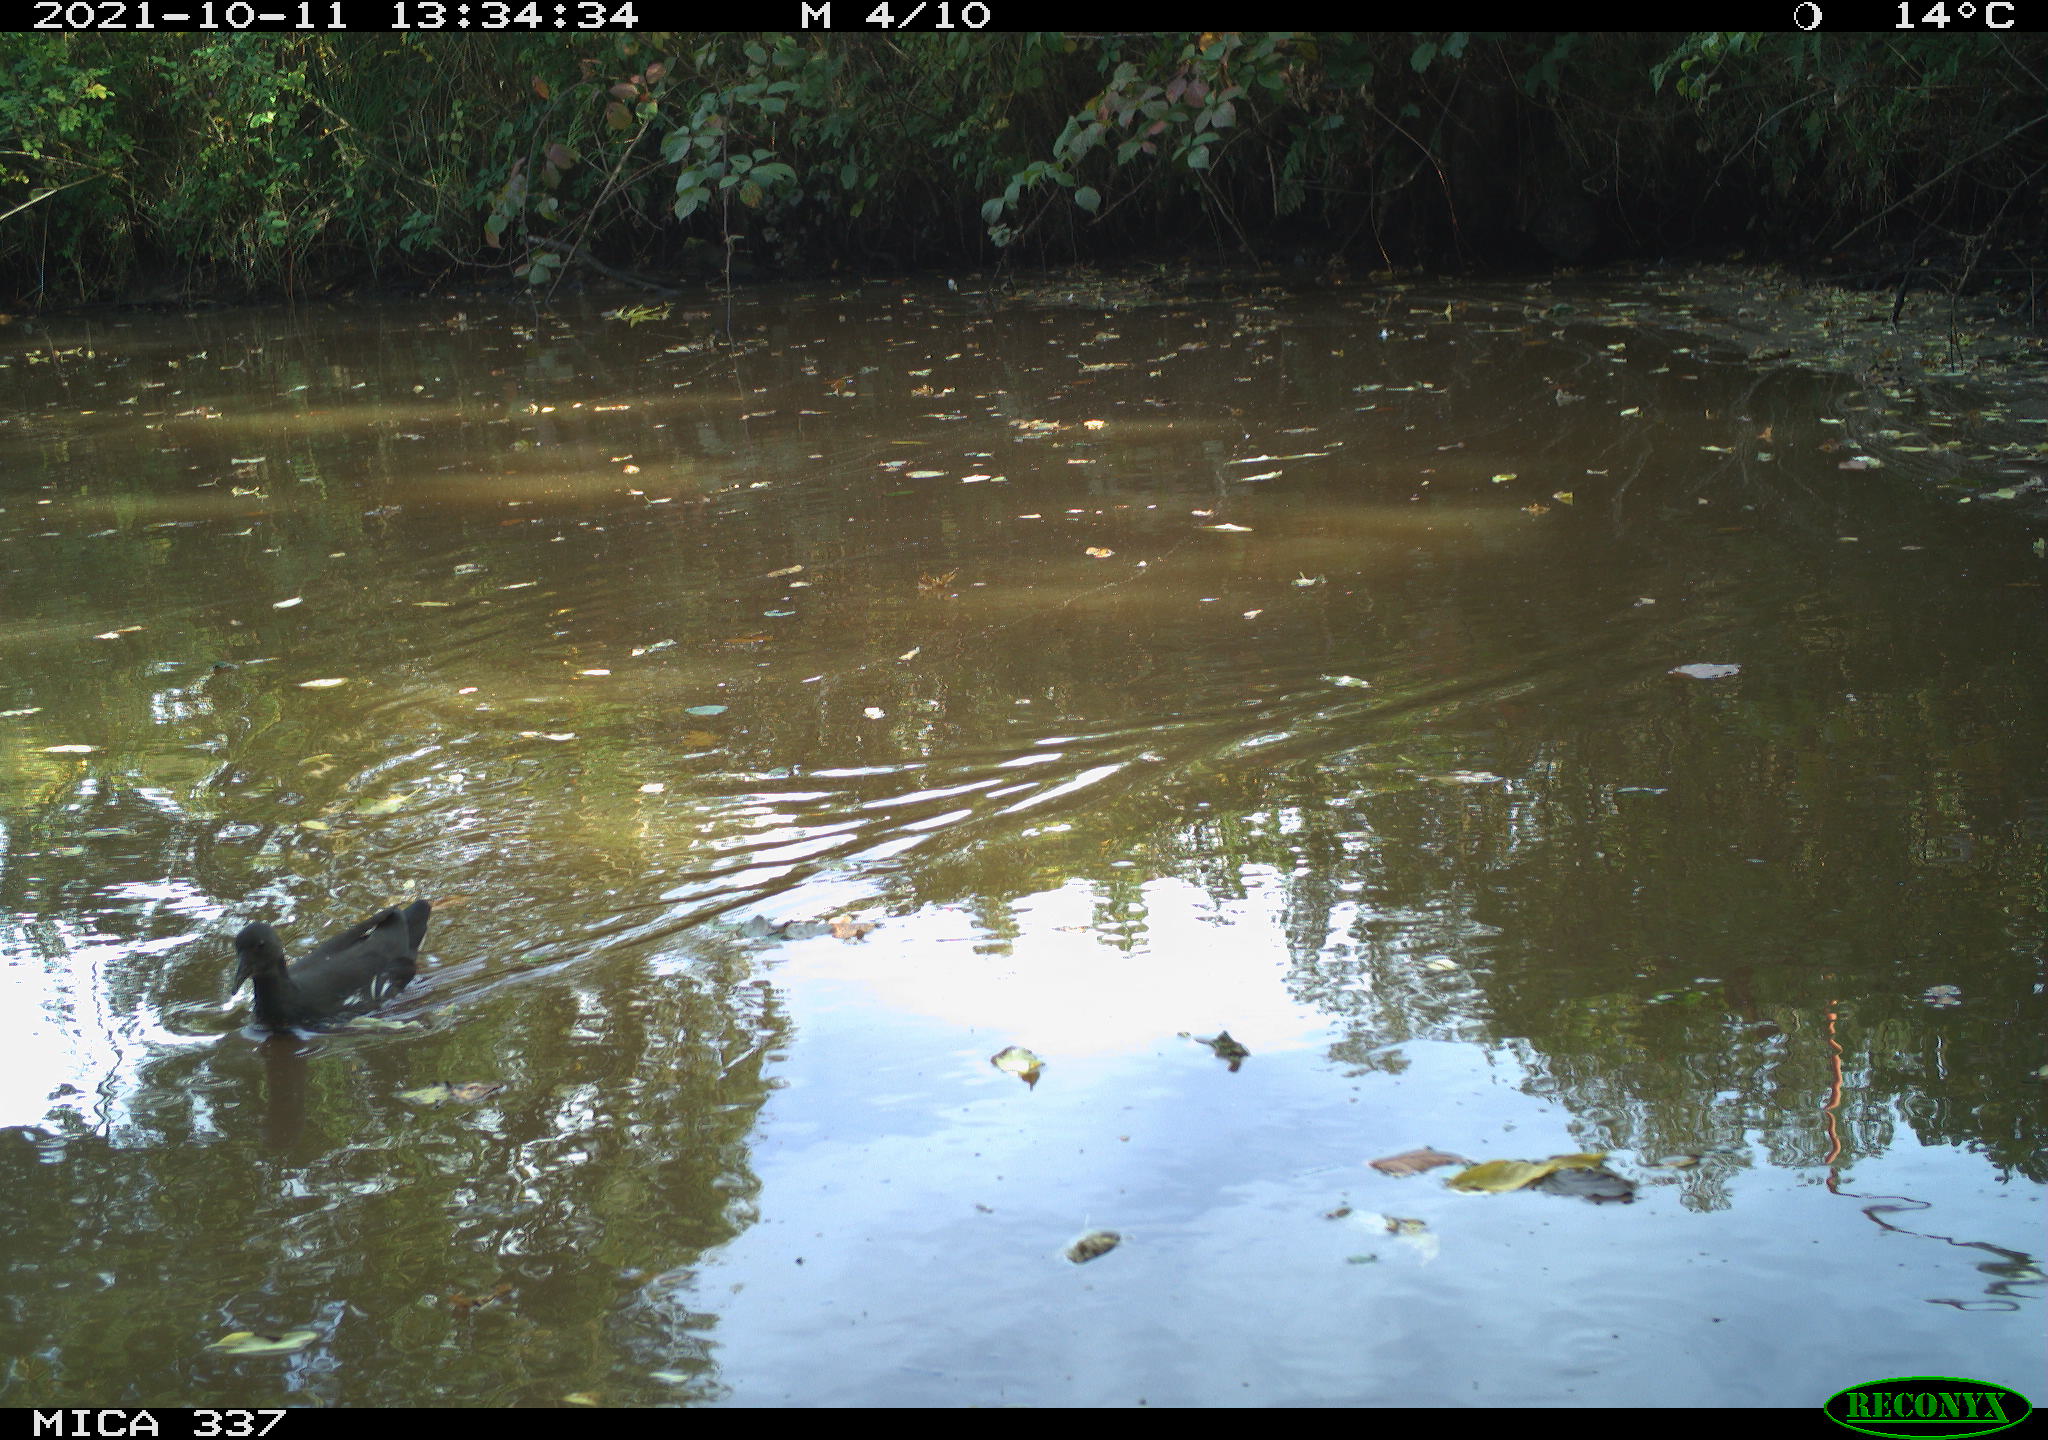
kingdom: Animalia
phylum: Chordata
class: Aves
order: Gruiformes
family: Rallidae
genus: Gallinula
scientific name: Gallinula chloropus
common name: Common moorhen
